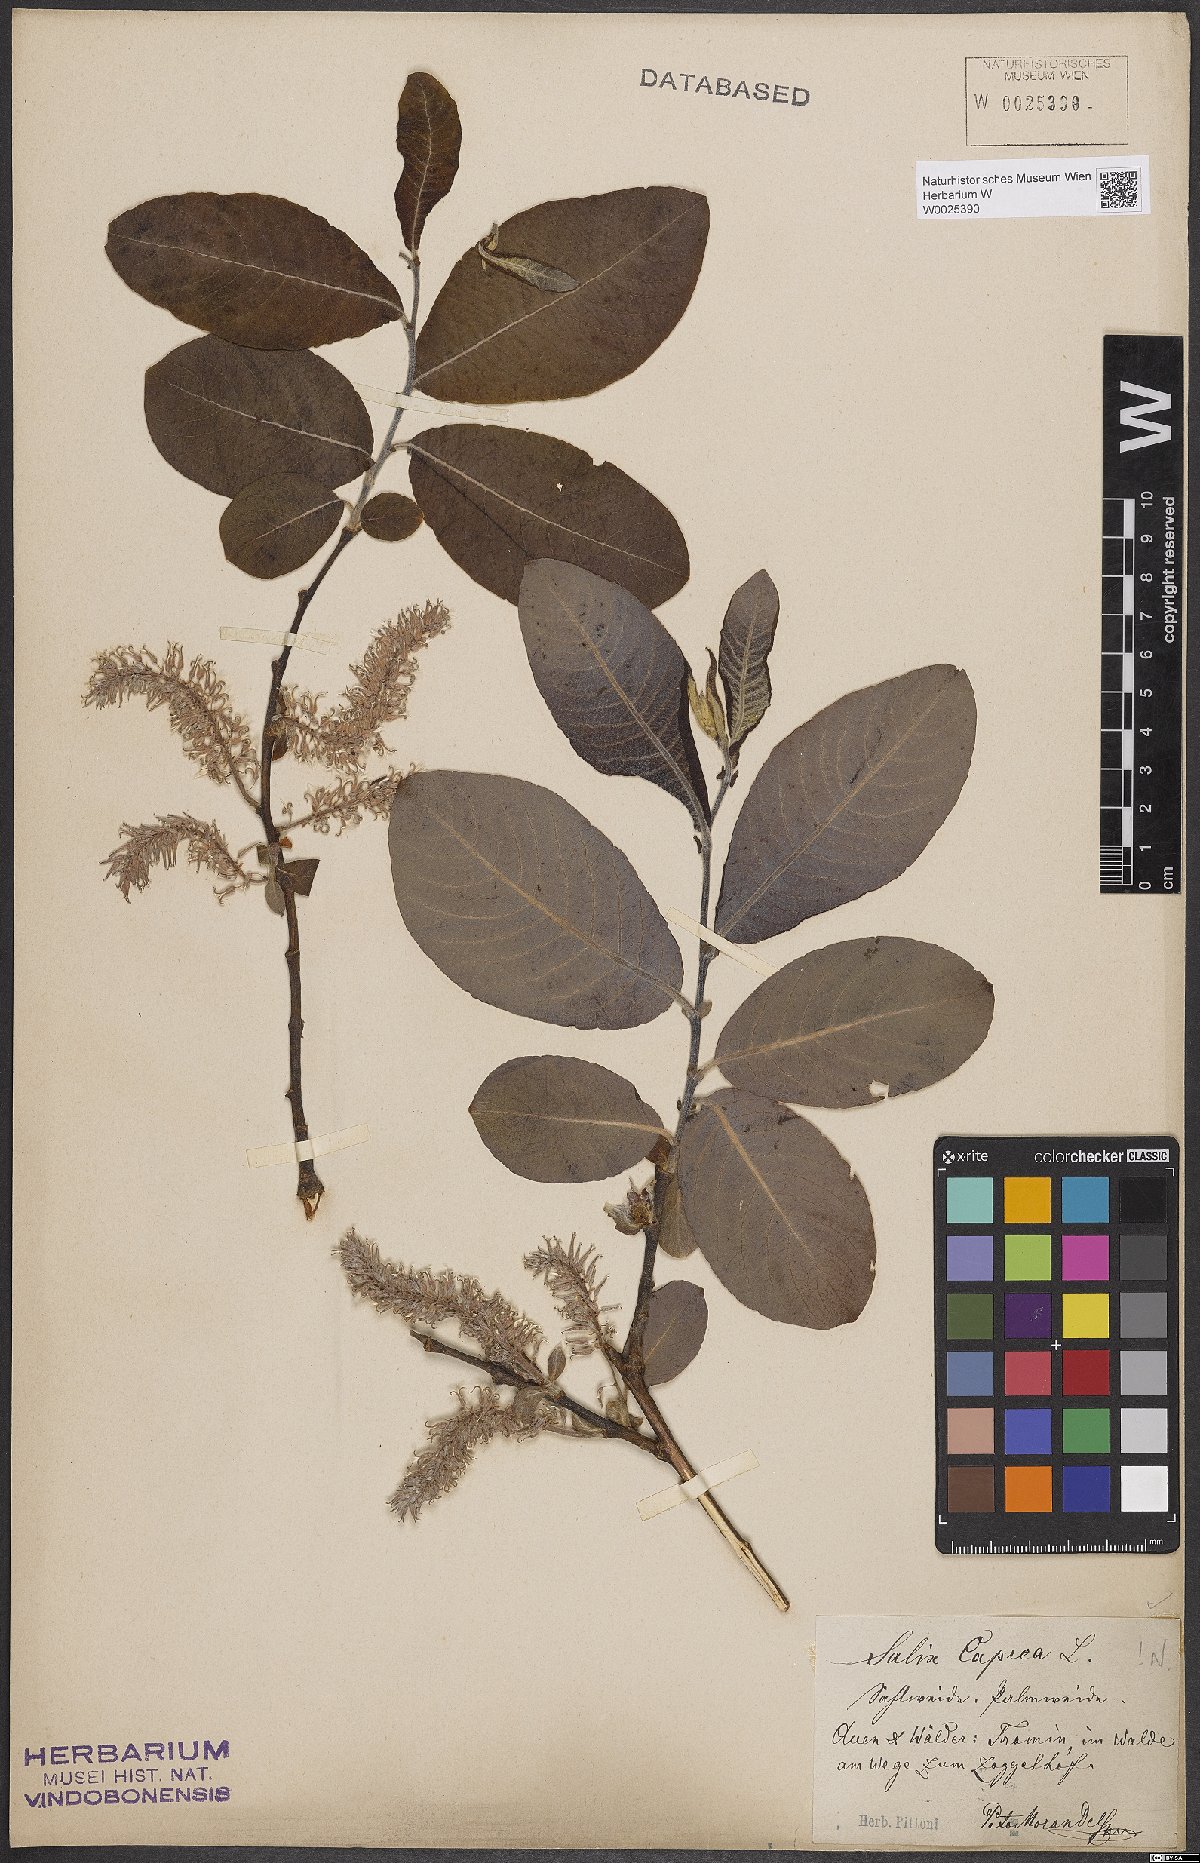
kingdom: Plantae
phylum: Tracheophyta
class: Magnoliopsida
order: Malpighiales
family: Salicaceae
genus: Salix
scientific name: Salix caprea
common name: Goat willow
